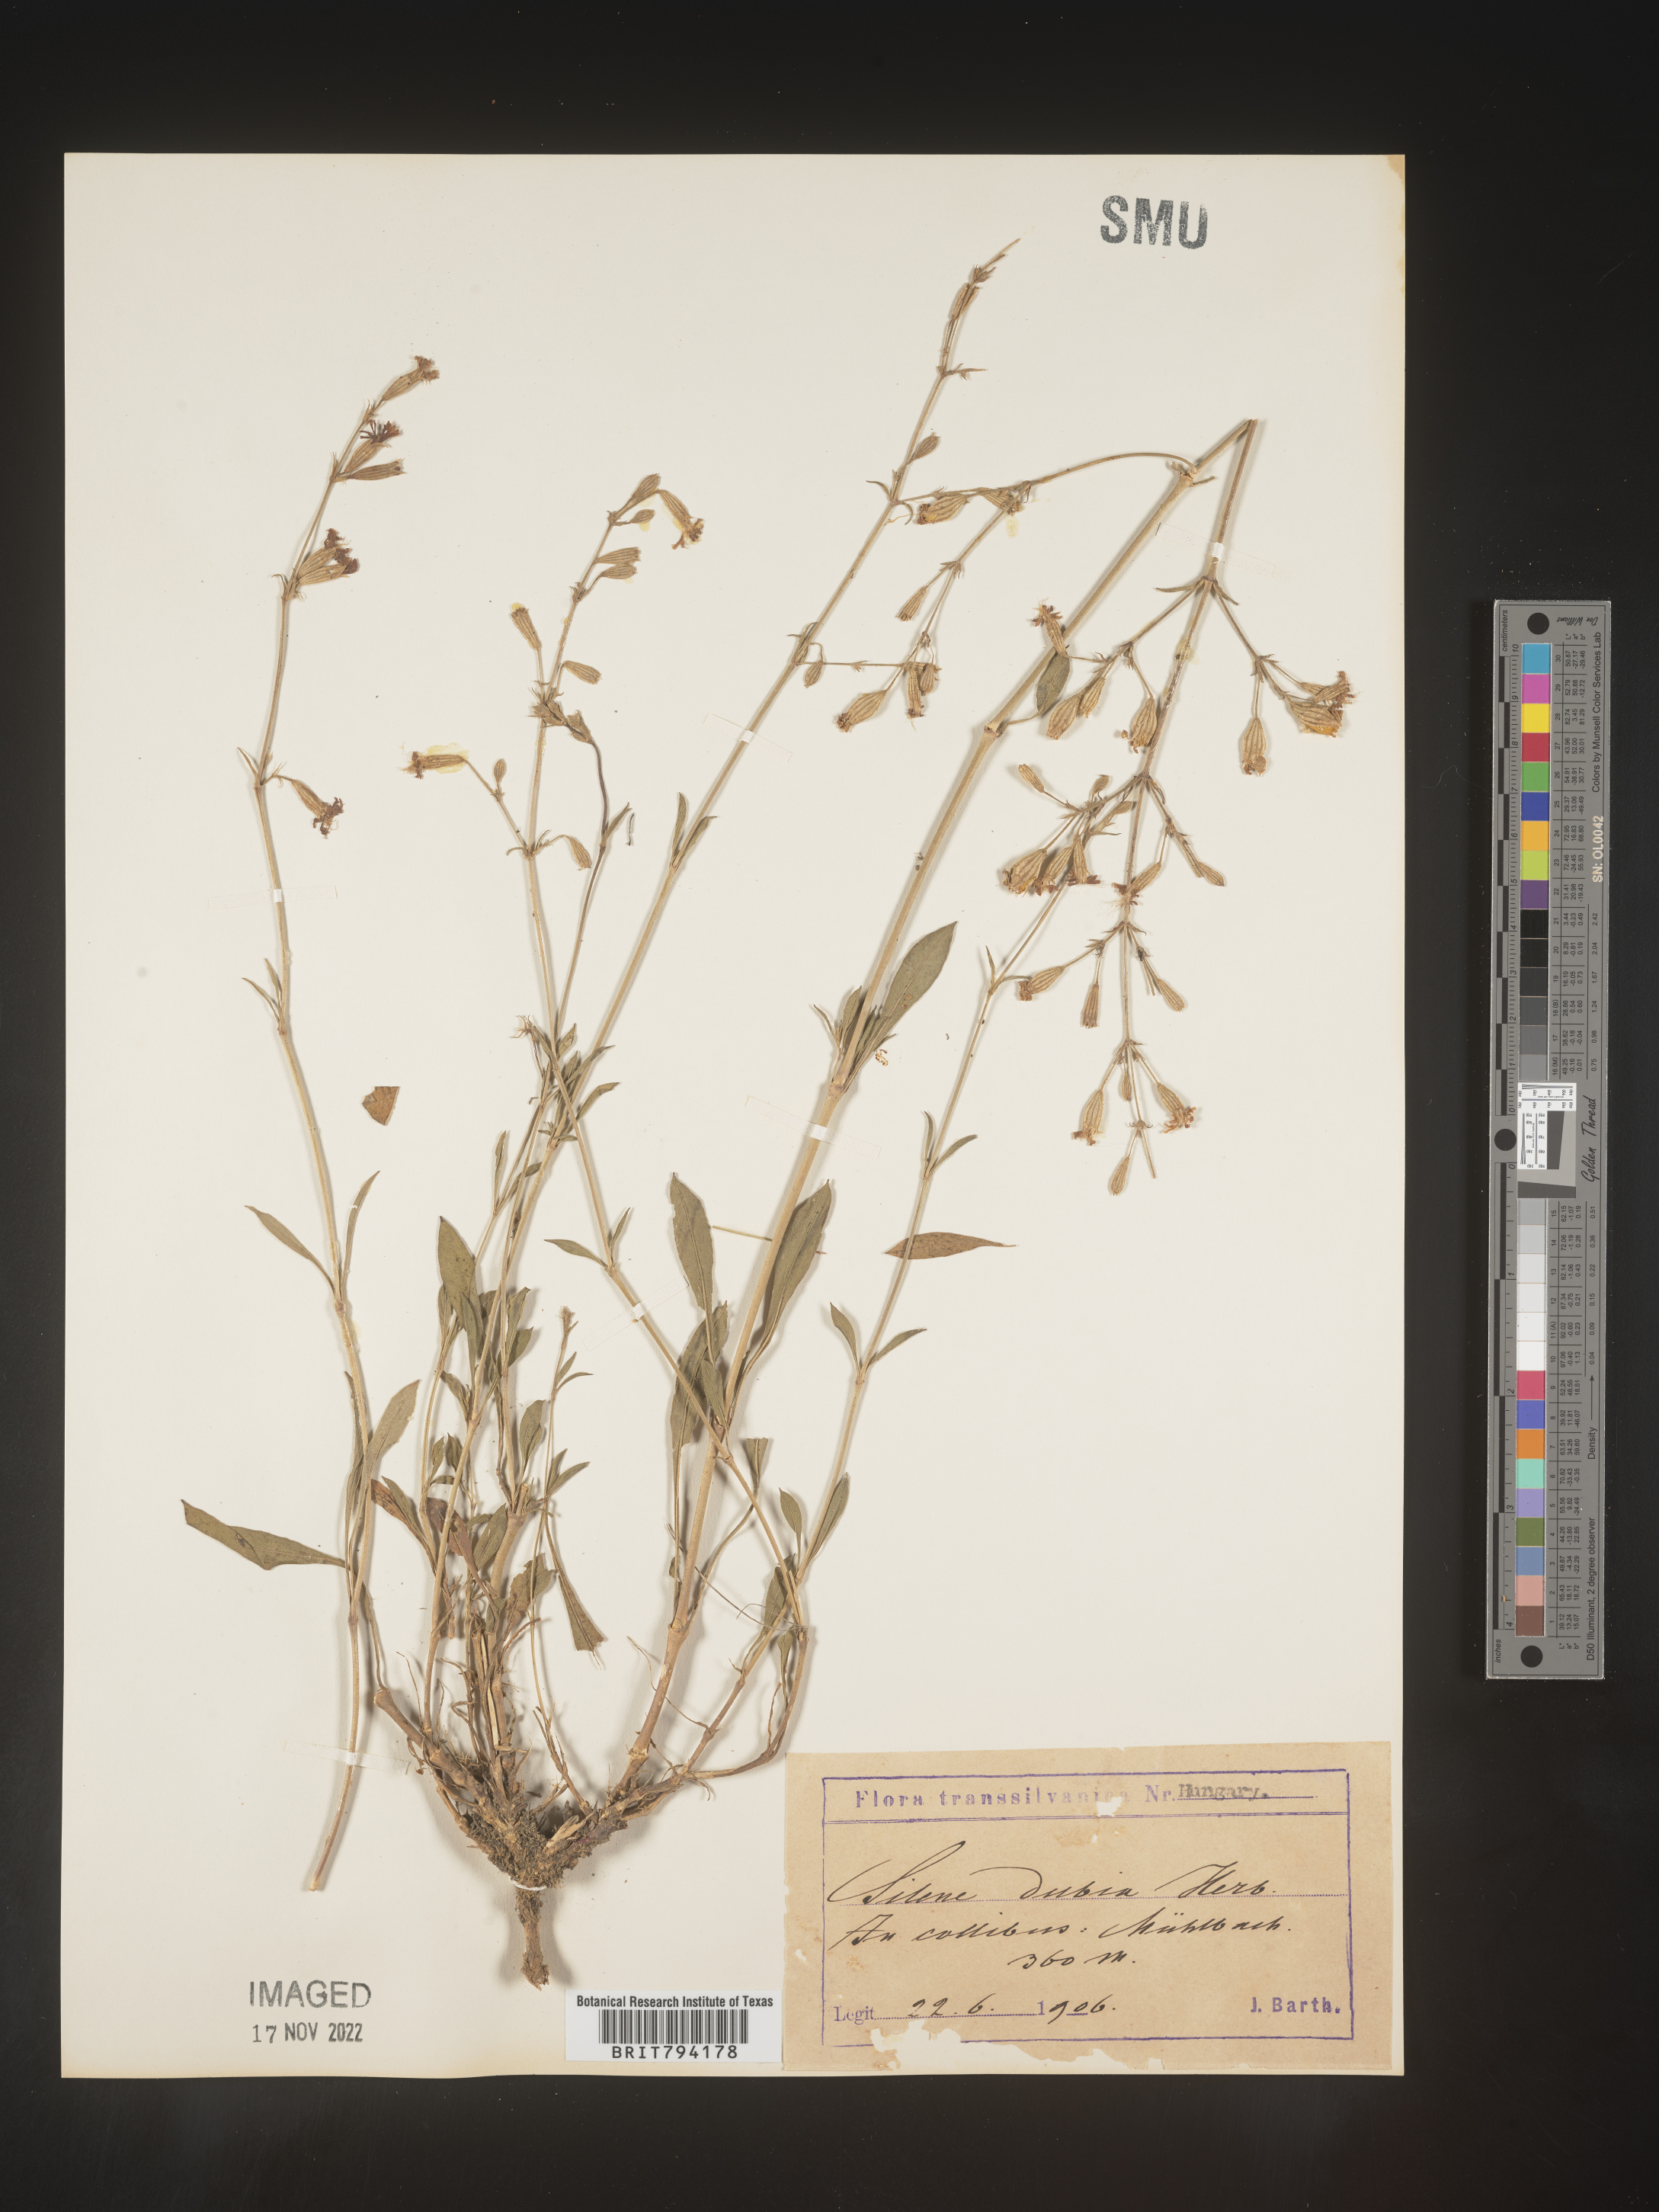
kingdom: Plantae
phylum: Tracheophyta
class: Magnoliopsida
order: Caryophyllales
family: Caryophyllaceae
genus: Silene
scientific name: Silene nutans
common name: Nottingham catchfly
